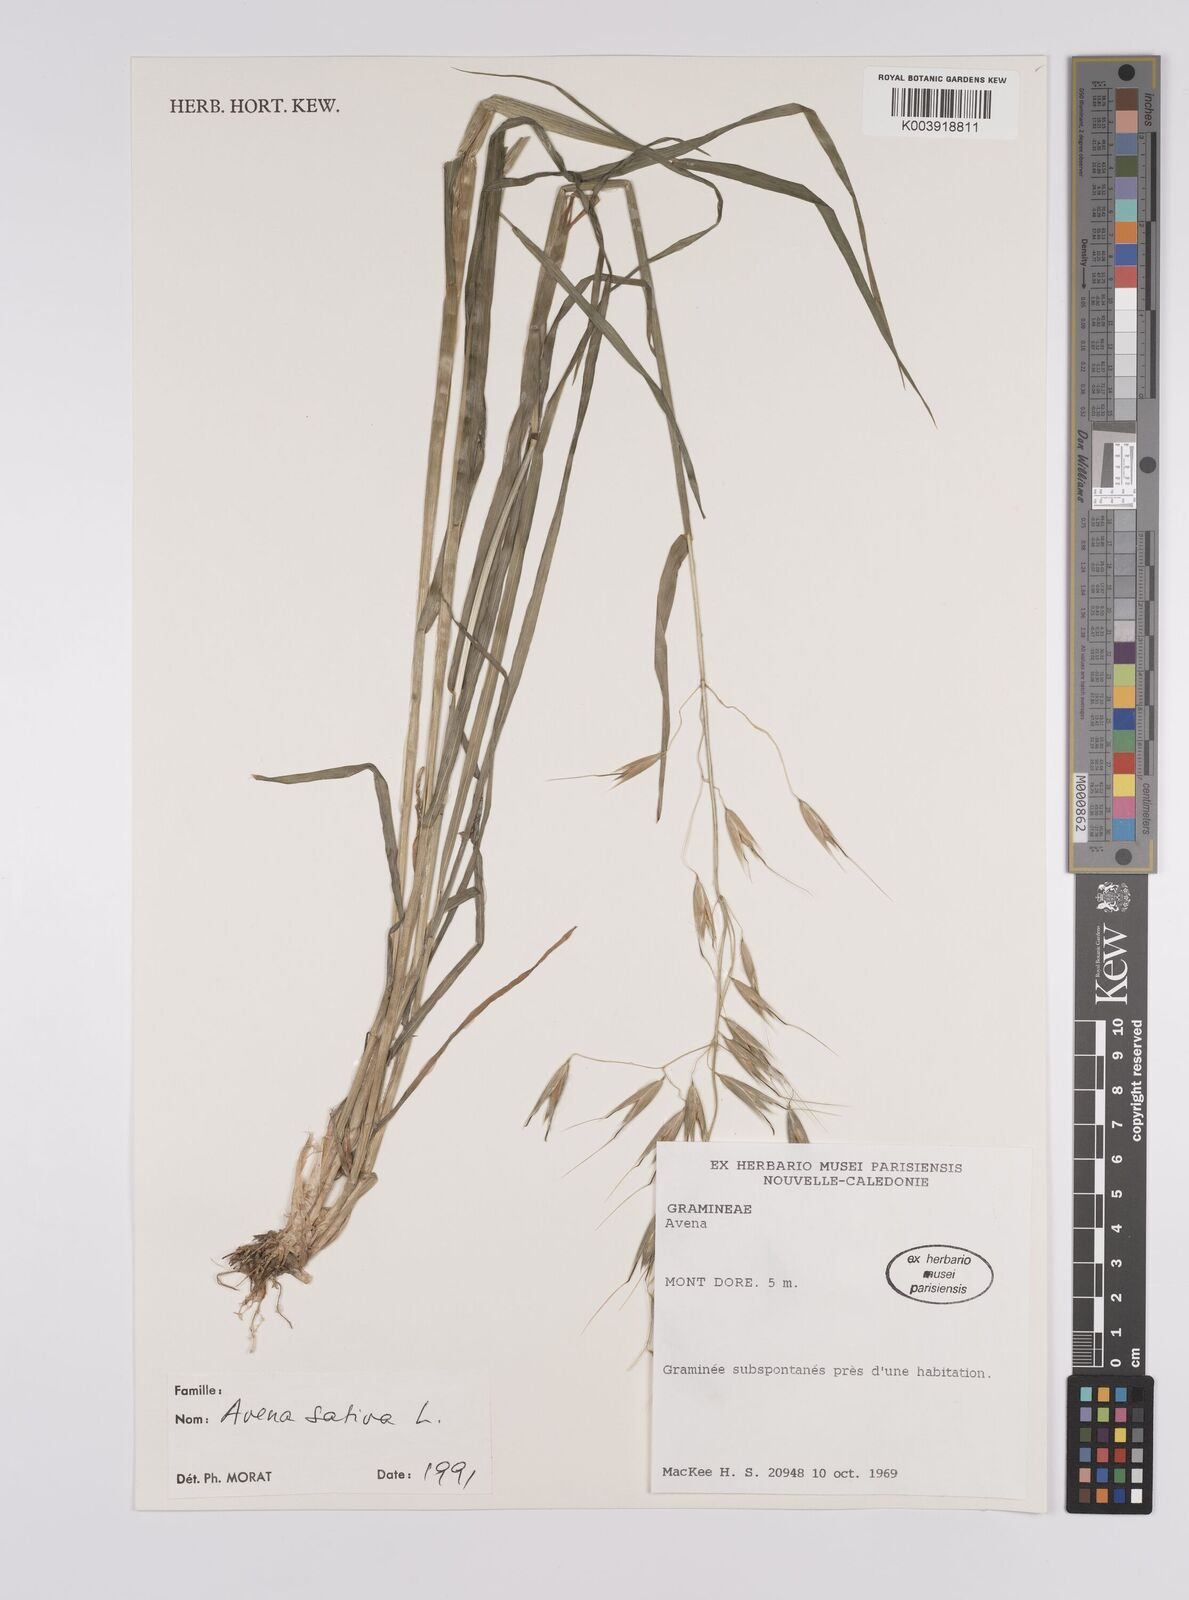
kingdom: Plantae
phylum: Tracheophyta
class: Liliopsida
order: Poales
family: Poaceae
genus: Avena
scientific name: Avena sativa
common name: Oat
